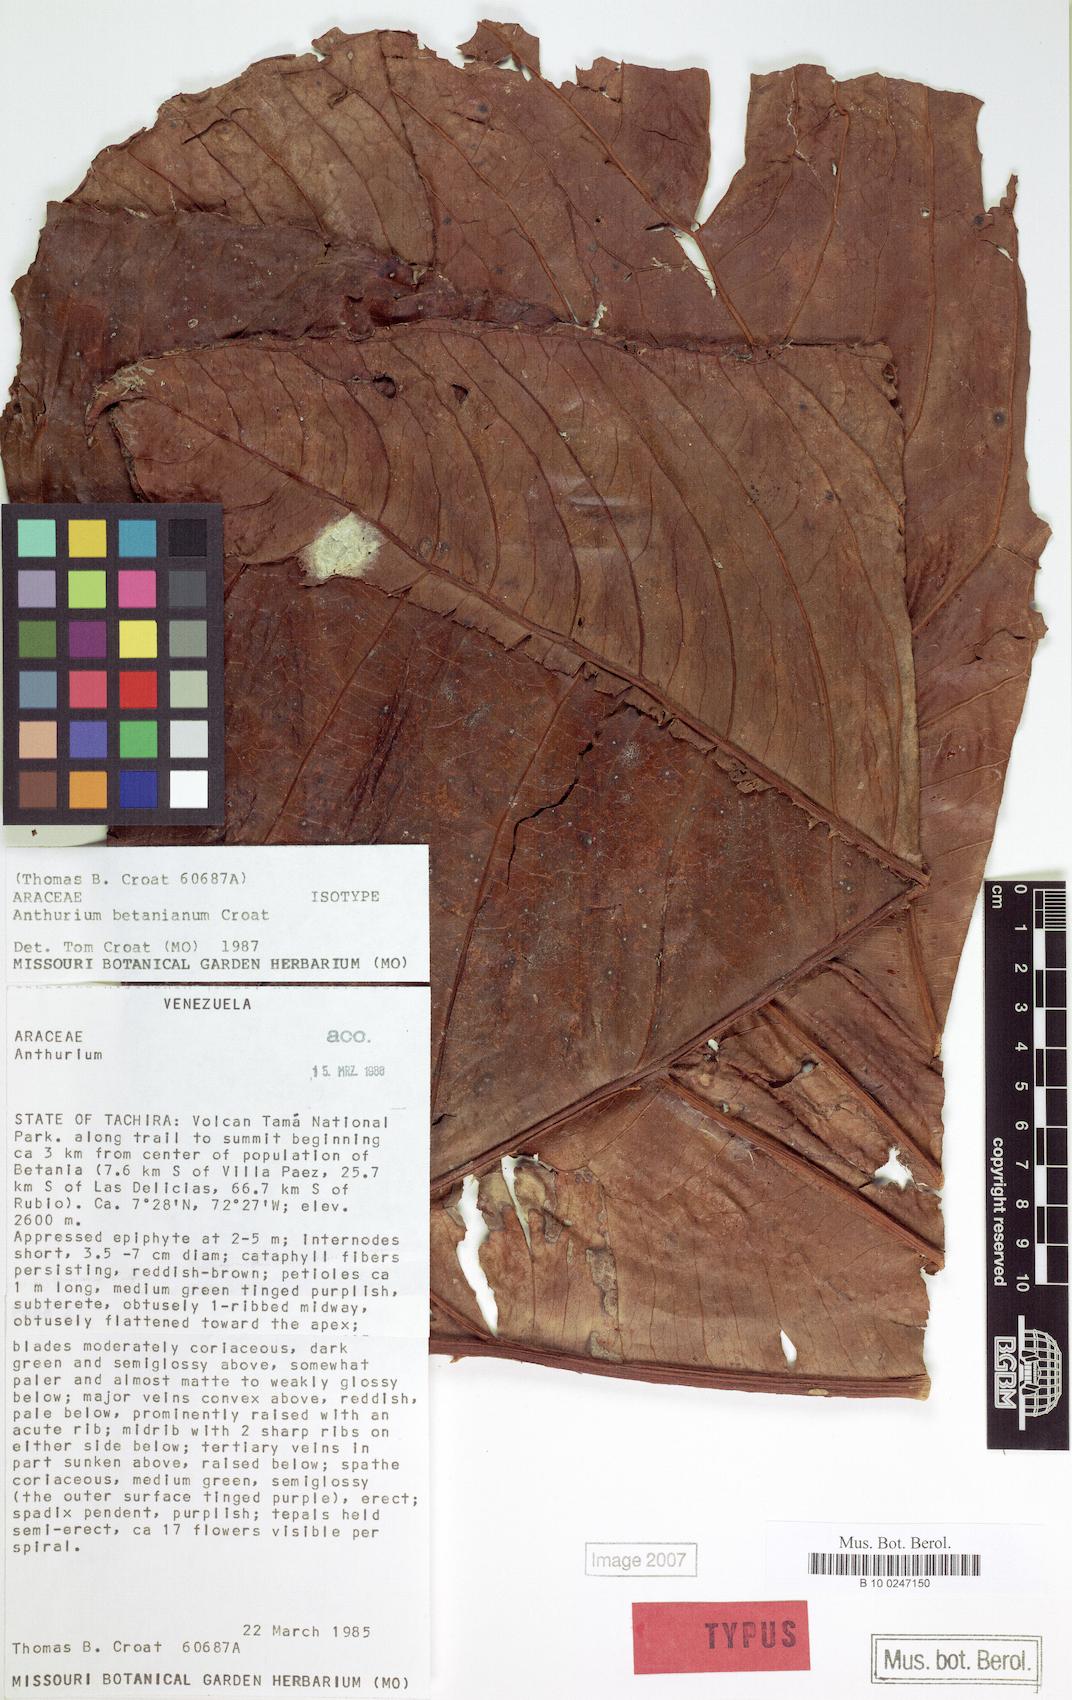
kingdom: Plantae
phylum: Tracheophyta
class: Liliopsida
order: Alismatales
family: Araceae
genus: Anthurium
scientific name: Anthurium betanianum
